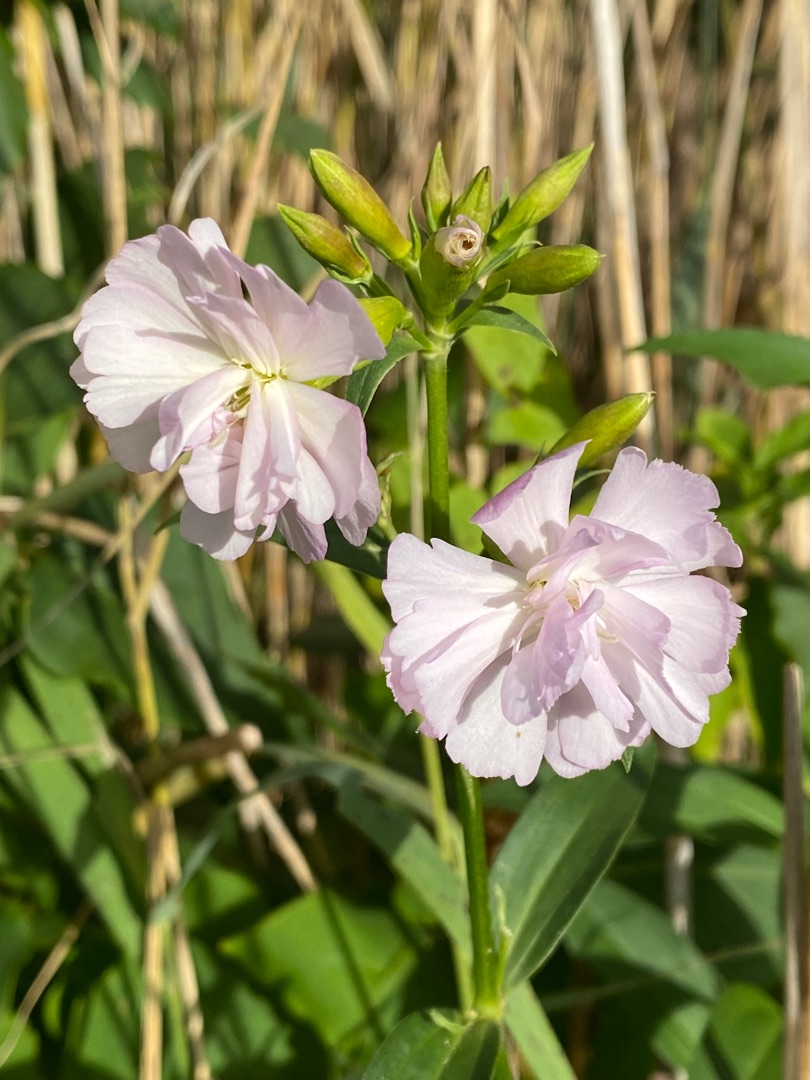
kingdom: Plantae
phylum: Tracheophyta
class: Magnoliopsida
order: Caryophyllales
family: Caryophyllaceae
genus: Saponaria
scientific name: Saponaria officinalis
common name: Sæbeurt
